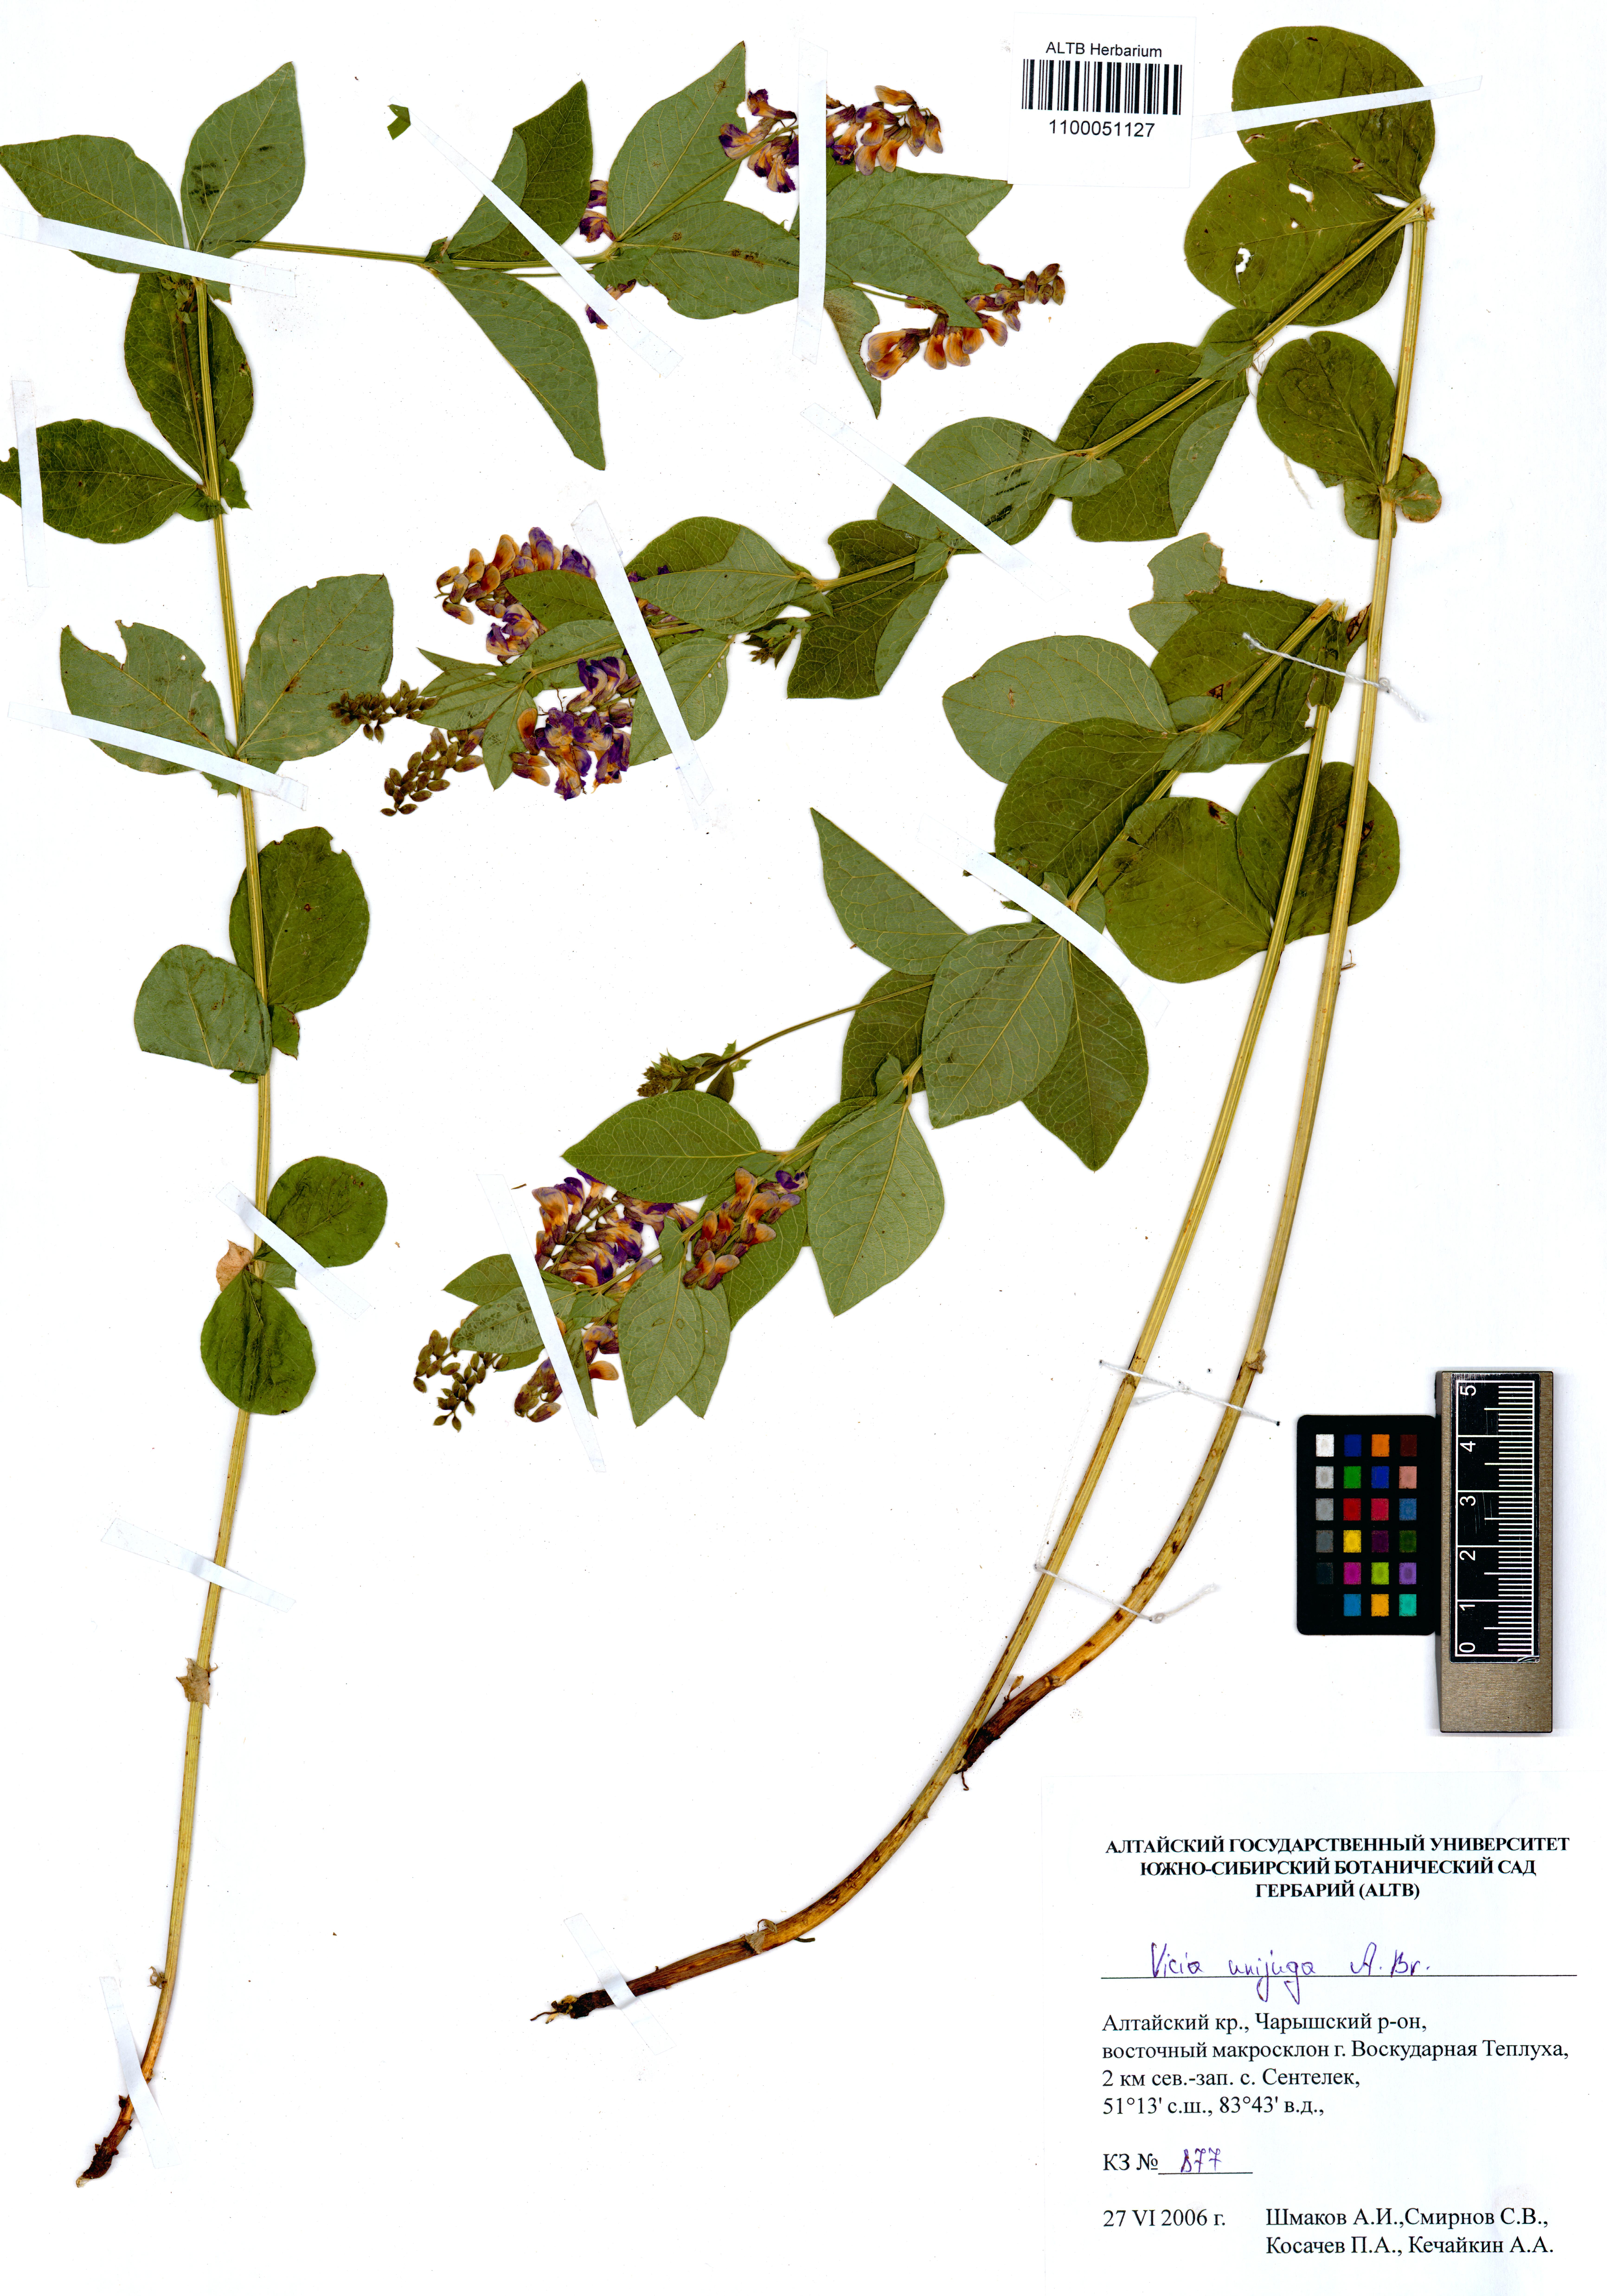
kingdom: Plantae
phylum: Tracheophyta
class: Magnoliopsida
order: Fabales
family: Fabaceae
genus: Vicia
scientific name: Vicia unijuga
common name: Two-leaf vetch
